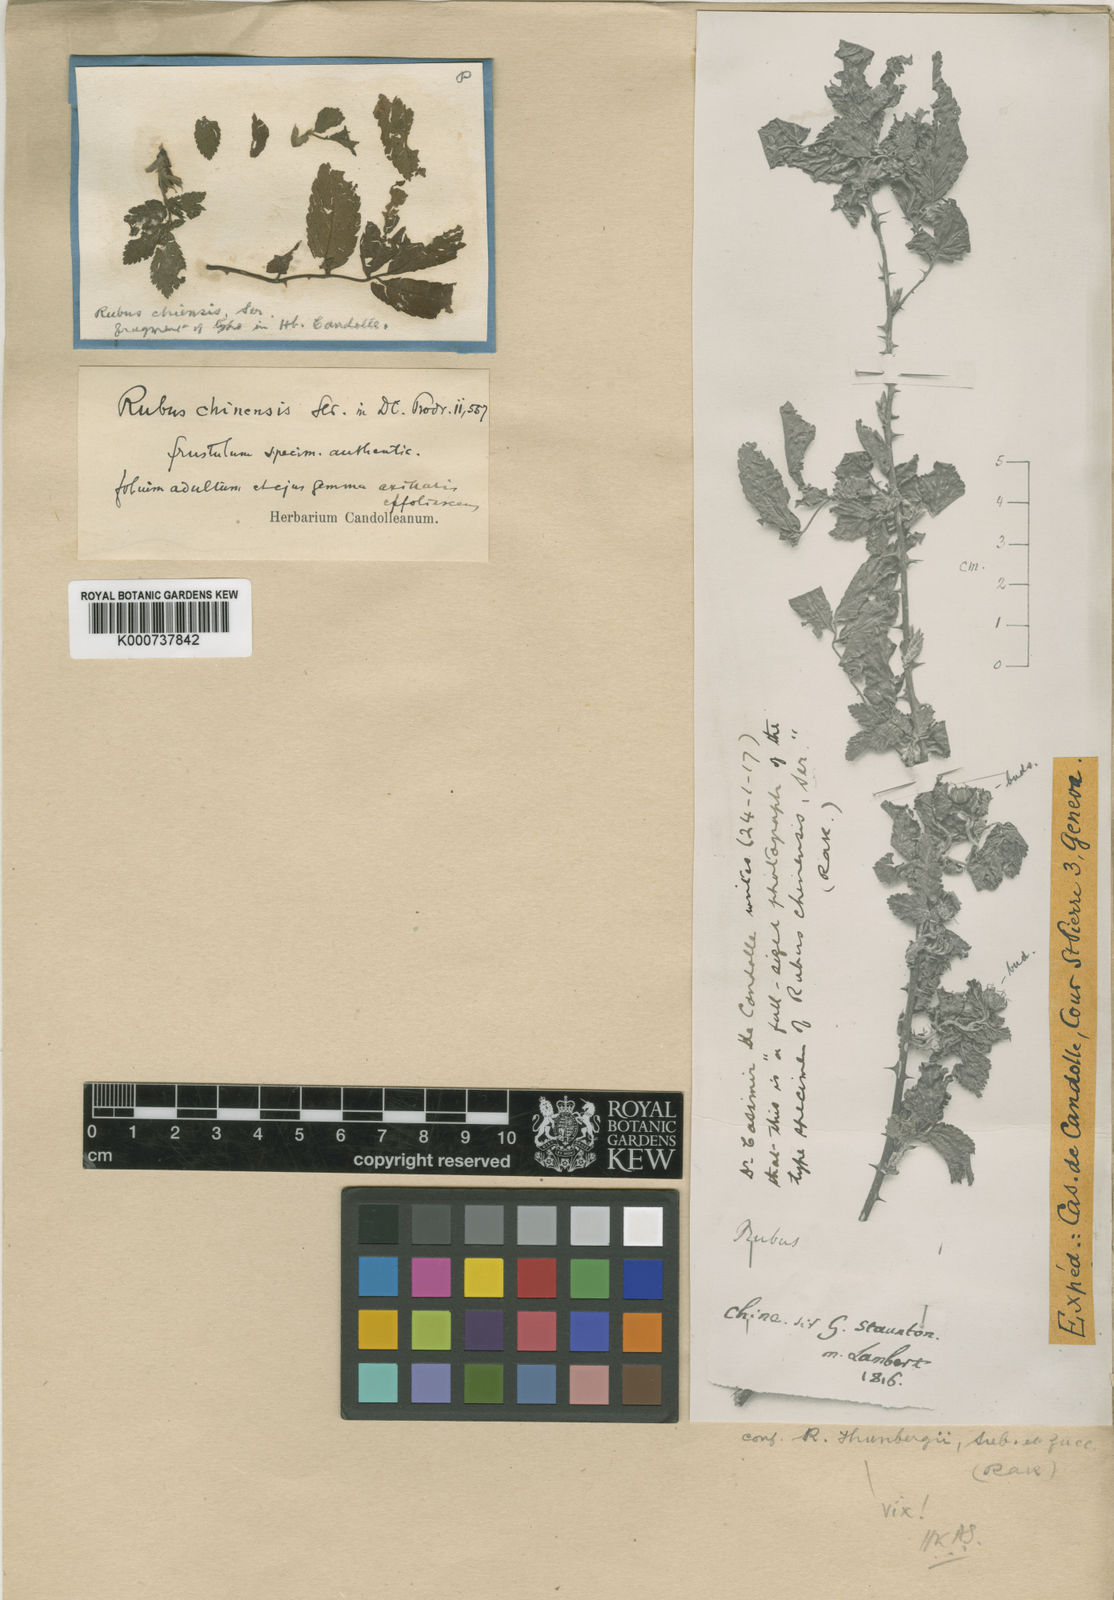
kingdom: Plantae
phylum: Tracheophyta
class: Magnoliopsida
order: Rosales
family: Rosaceae
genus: Rubus
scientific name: Rubus
